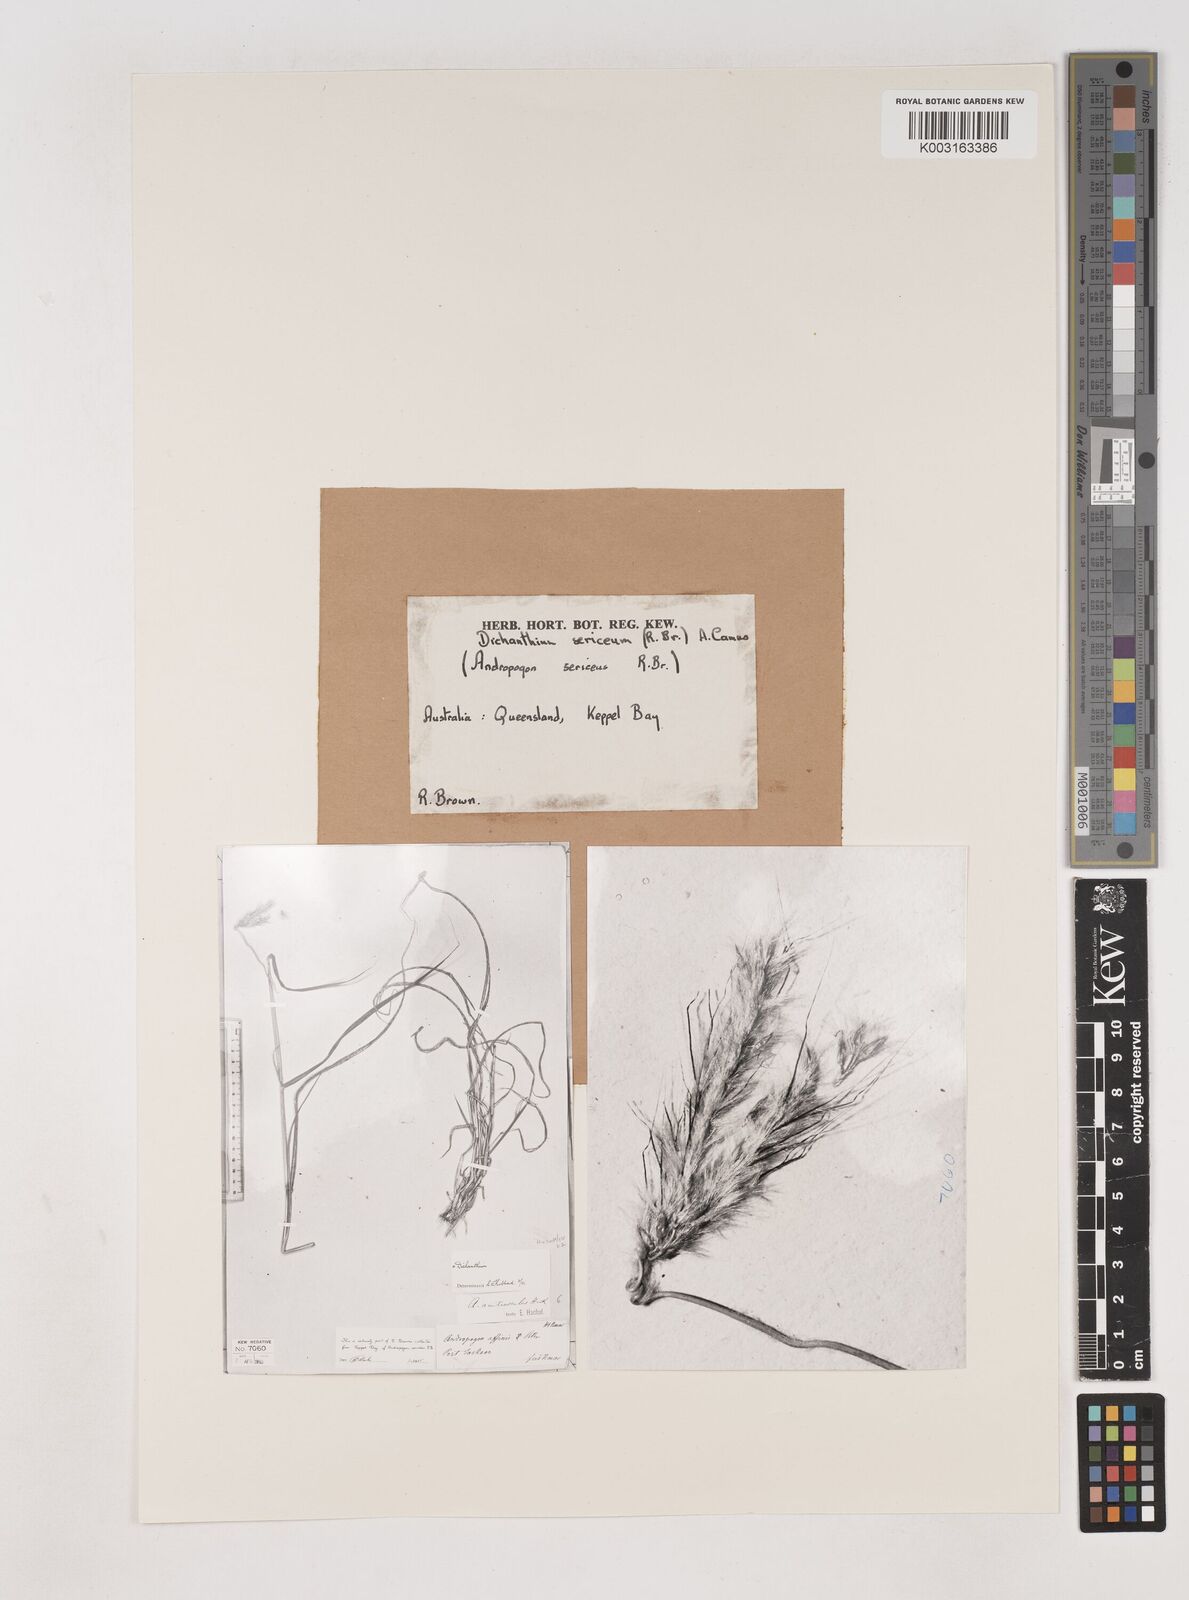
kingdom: Plantae
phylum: Tracheophyta
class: Liliopsida
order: Poales
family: Poaceae
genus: Dichanthium
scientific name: Dichanthium sericeum
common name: Silky bluestem
